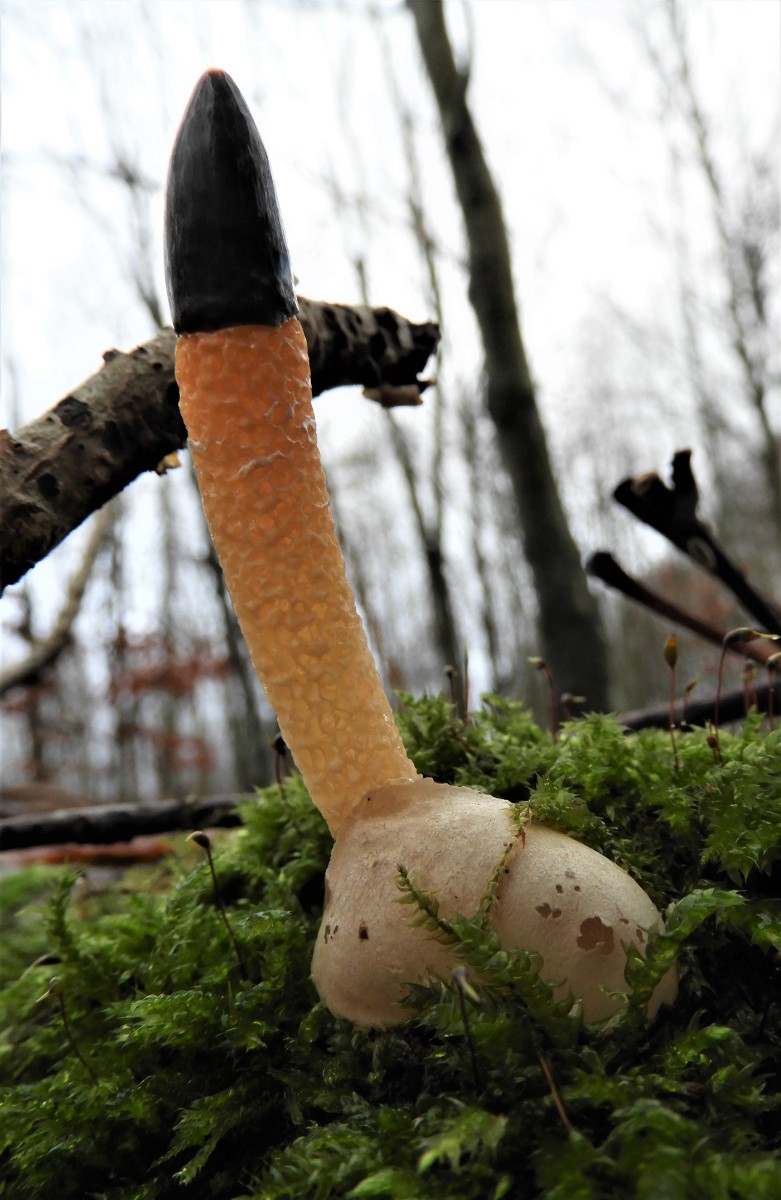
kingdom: Fungi
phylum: Basidiomycota
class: Agaricomycetes
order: Phallales
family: Phallaceae
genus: Mutinus
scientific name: Mutinus caninus
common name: hunde-stinksvamp
